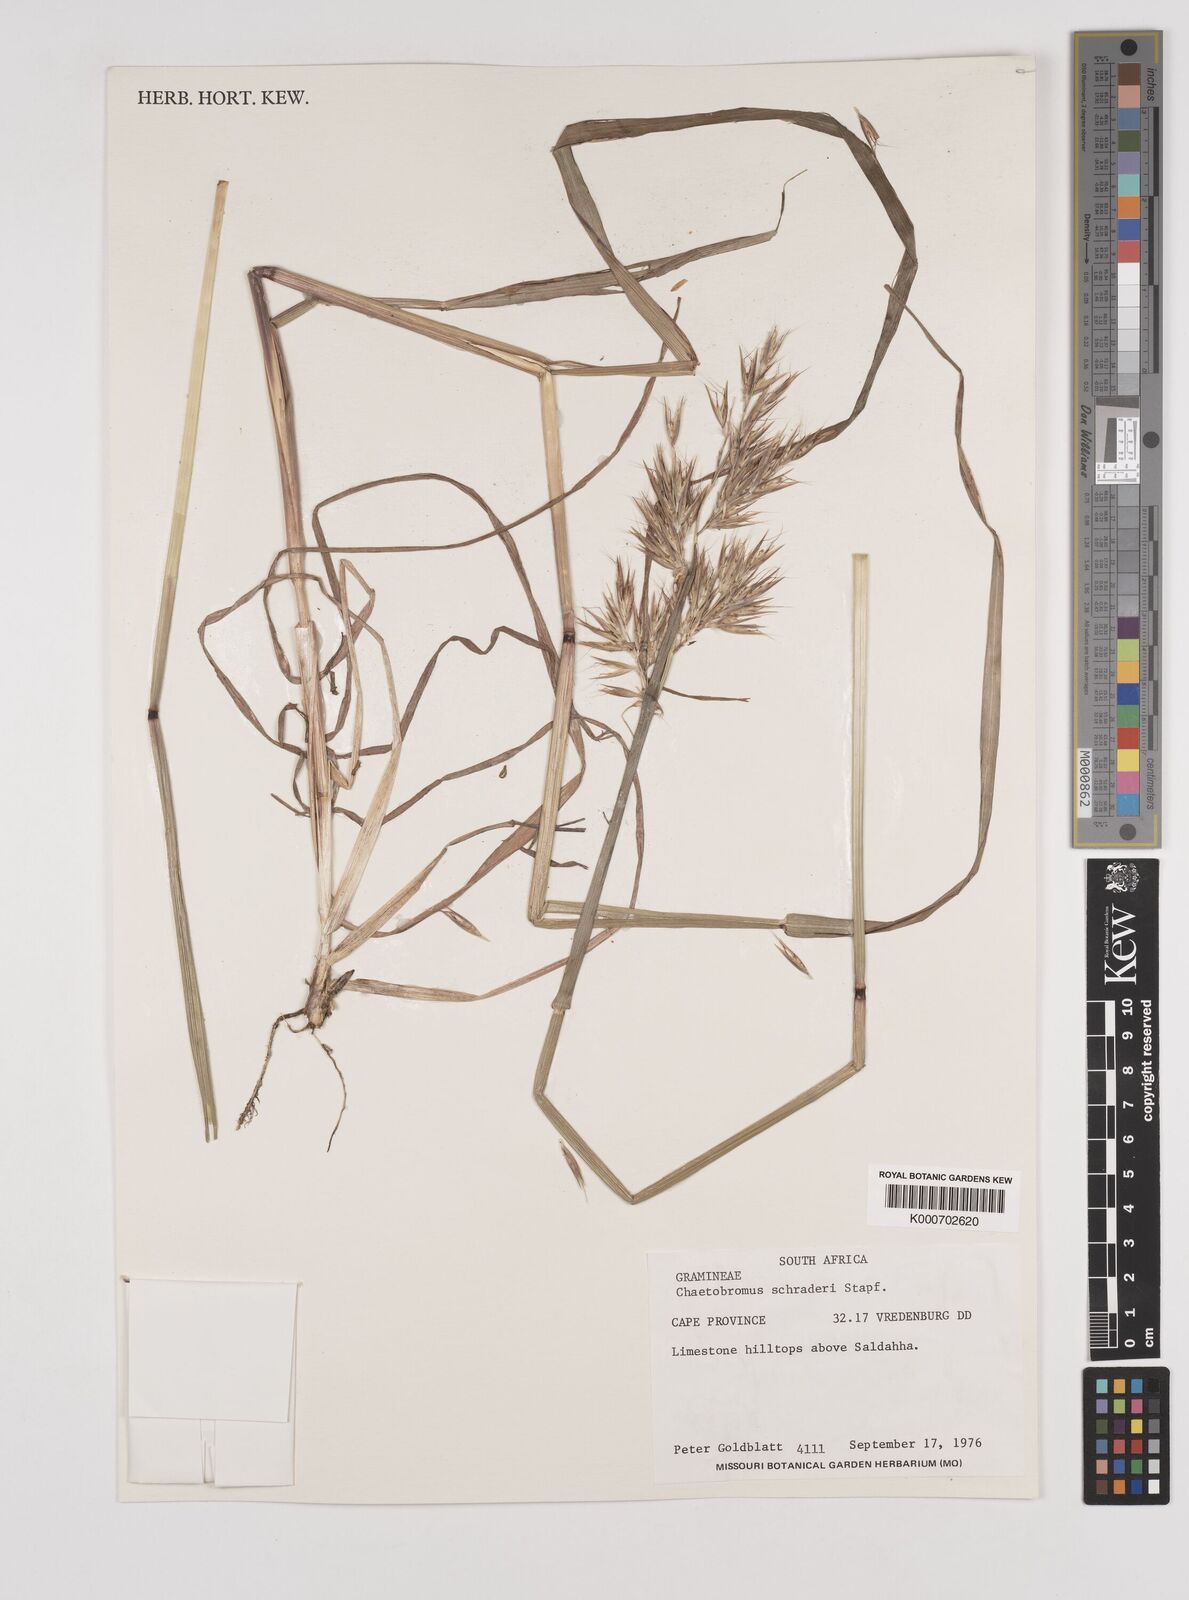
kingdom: Plantae
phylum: Tracheophyta
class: Liliopsida
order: Poales
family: Poaceae
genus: Chaetobromus
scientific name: Chaetobromus involucratus
